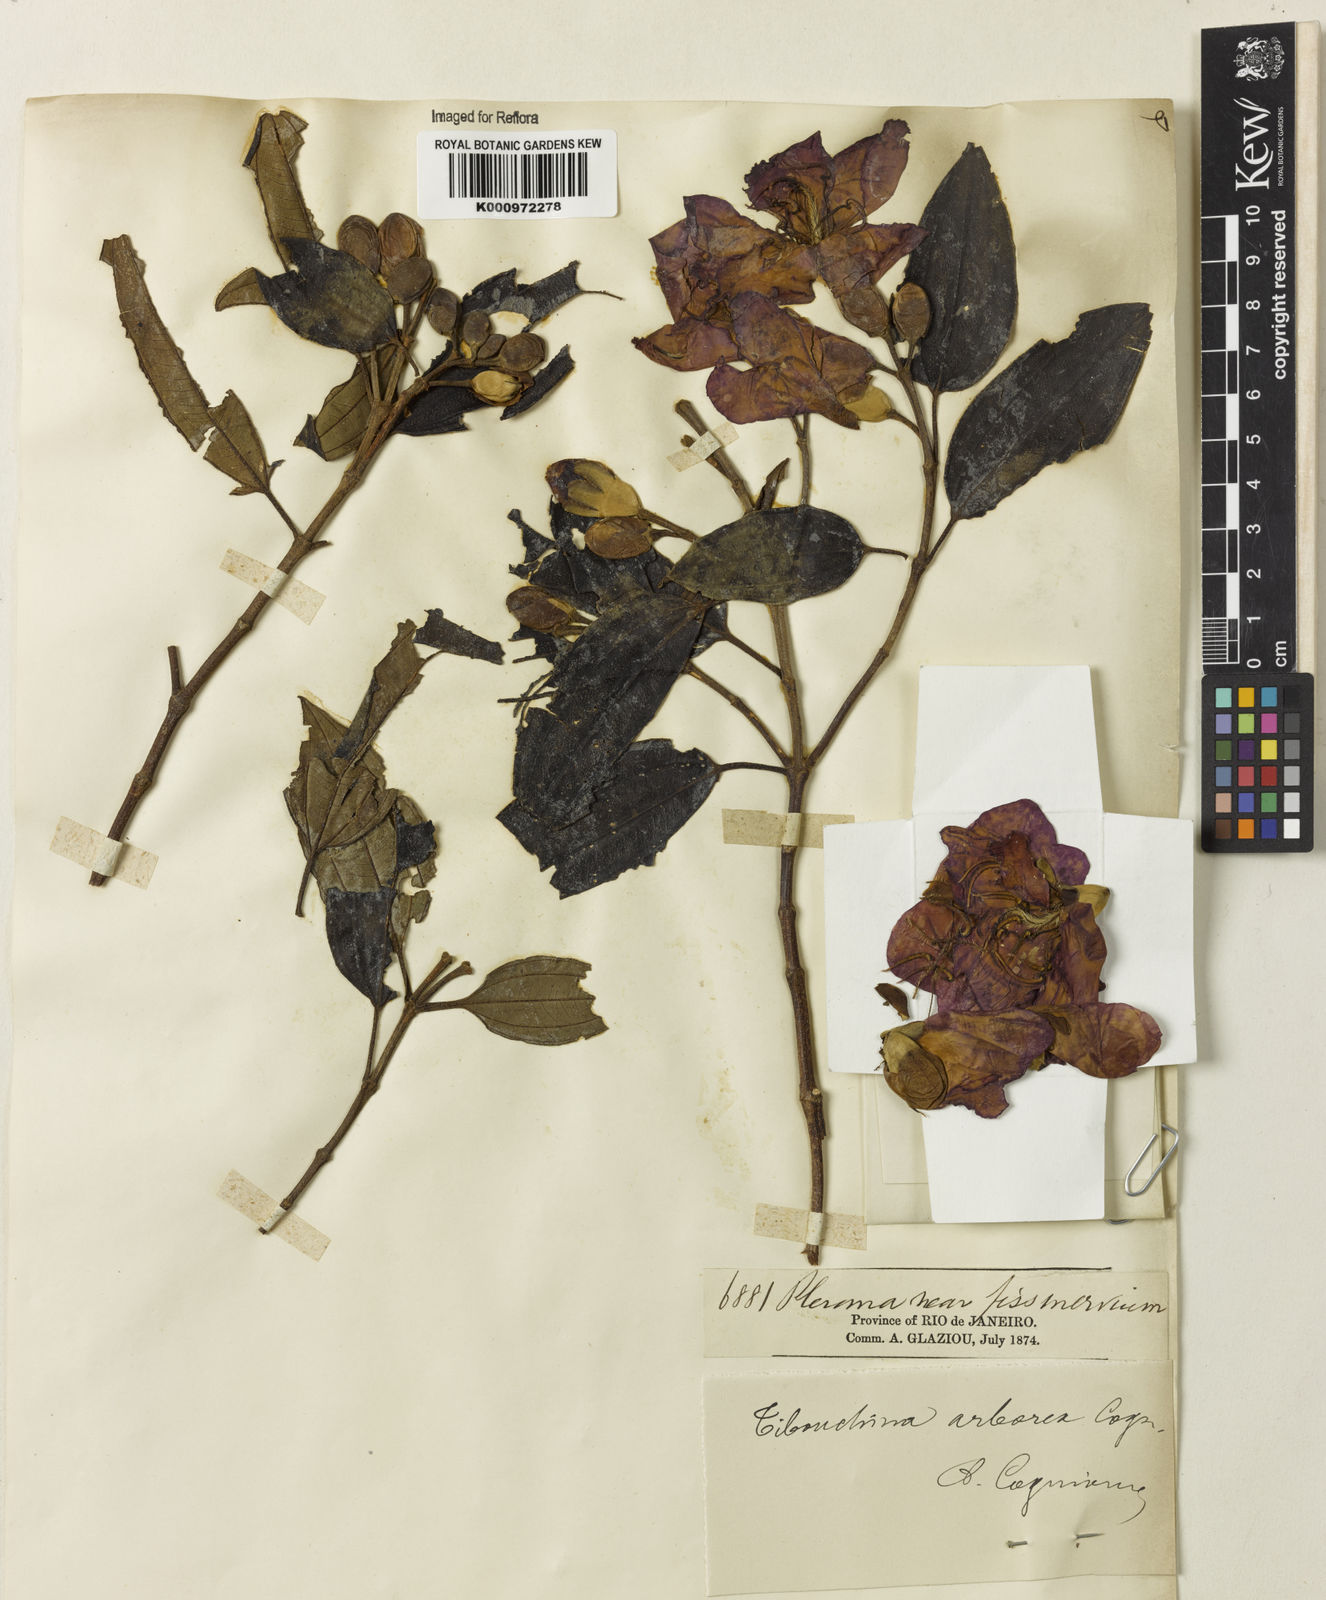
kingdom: Plantae
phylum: Tracheophyta
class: Magnoliopsida
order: Myrtales
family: Melastomataceae
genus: Pleroma
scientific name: Pleroma arboreum
